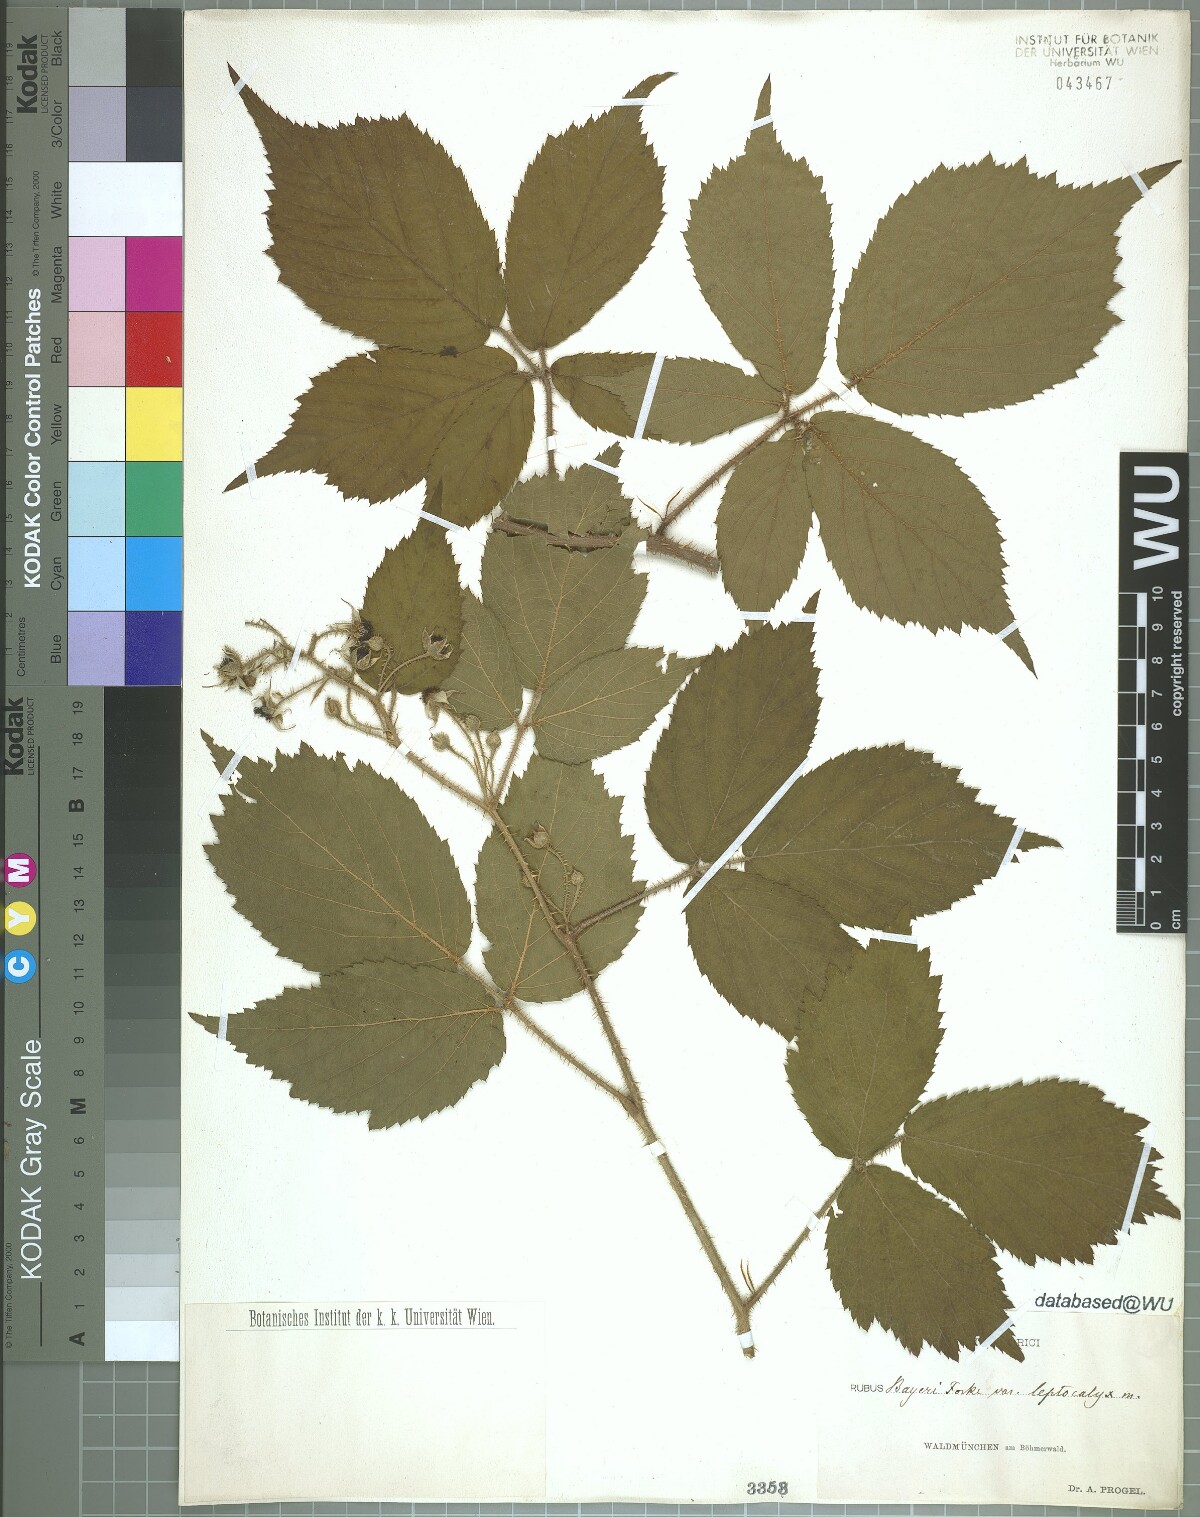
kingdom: Plantae
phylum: Tracheophyta
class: Magnoliopsida
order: Rosales
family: Rosaceae
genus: Rubus
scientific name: Rubus rivularis
